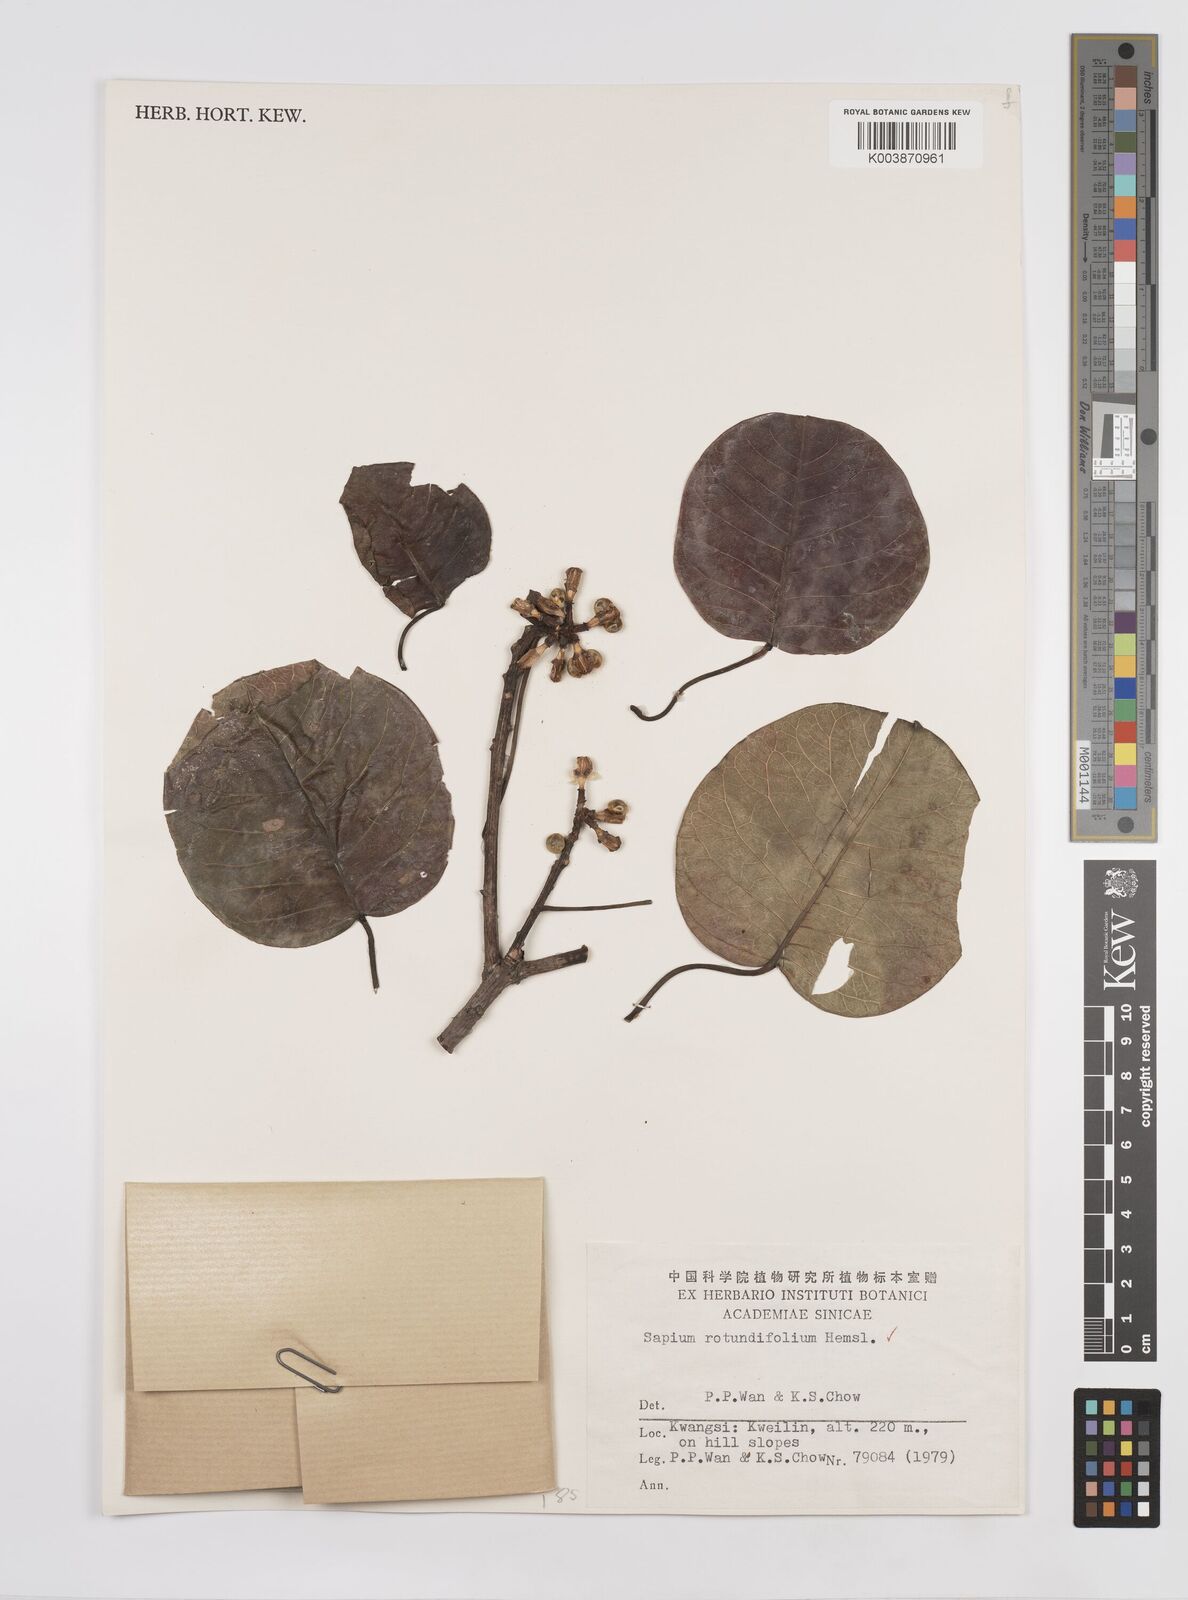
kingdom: Plantae
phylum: Tracheophyta
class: Magnoliopsida
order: Malpighiales
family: Euphorbiaceae
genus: Triadica
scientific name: Triadica rotundifolia
